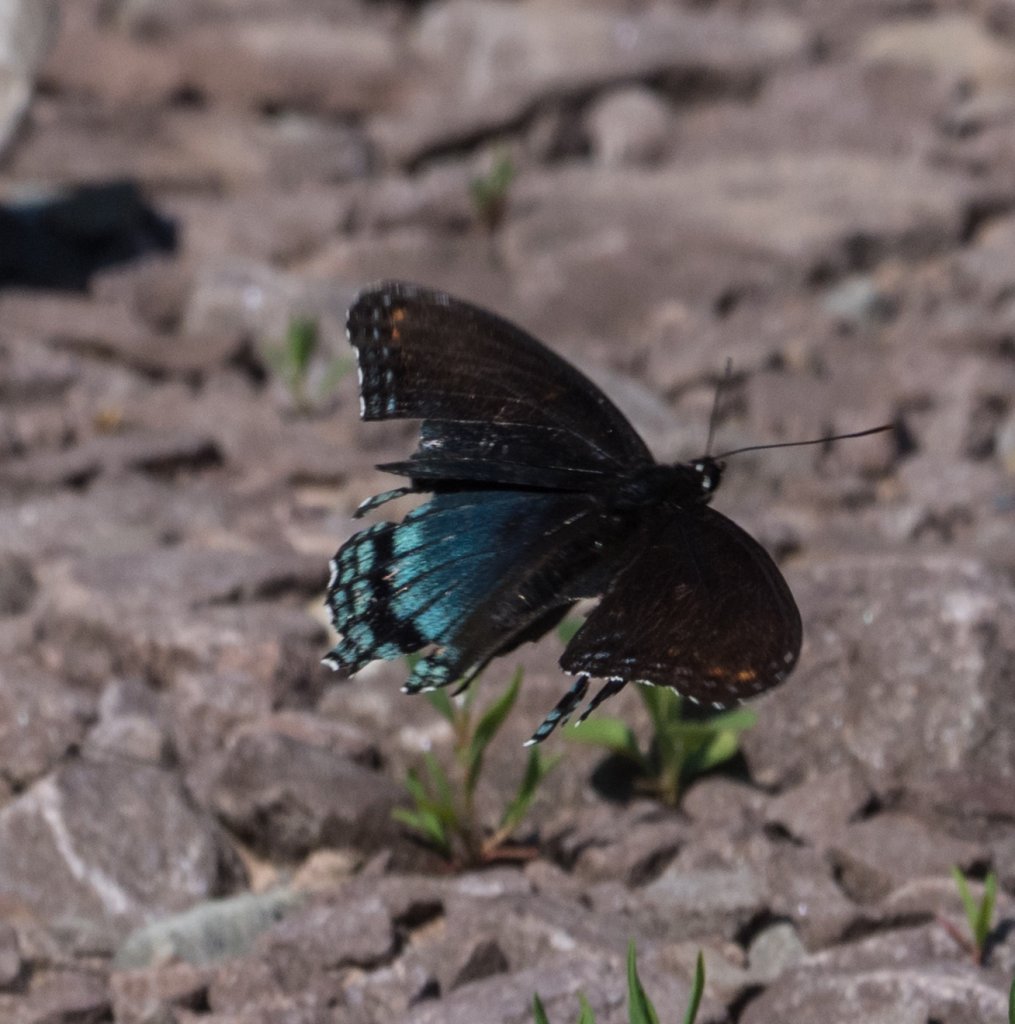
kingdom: Animalia
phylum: Arthropoda
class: Insecta
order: Lepidoptera
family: Nymphalidae
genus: Limenitis
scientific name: Limenitis astyanax
